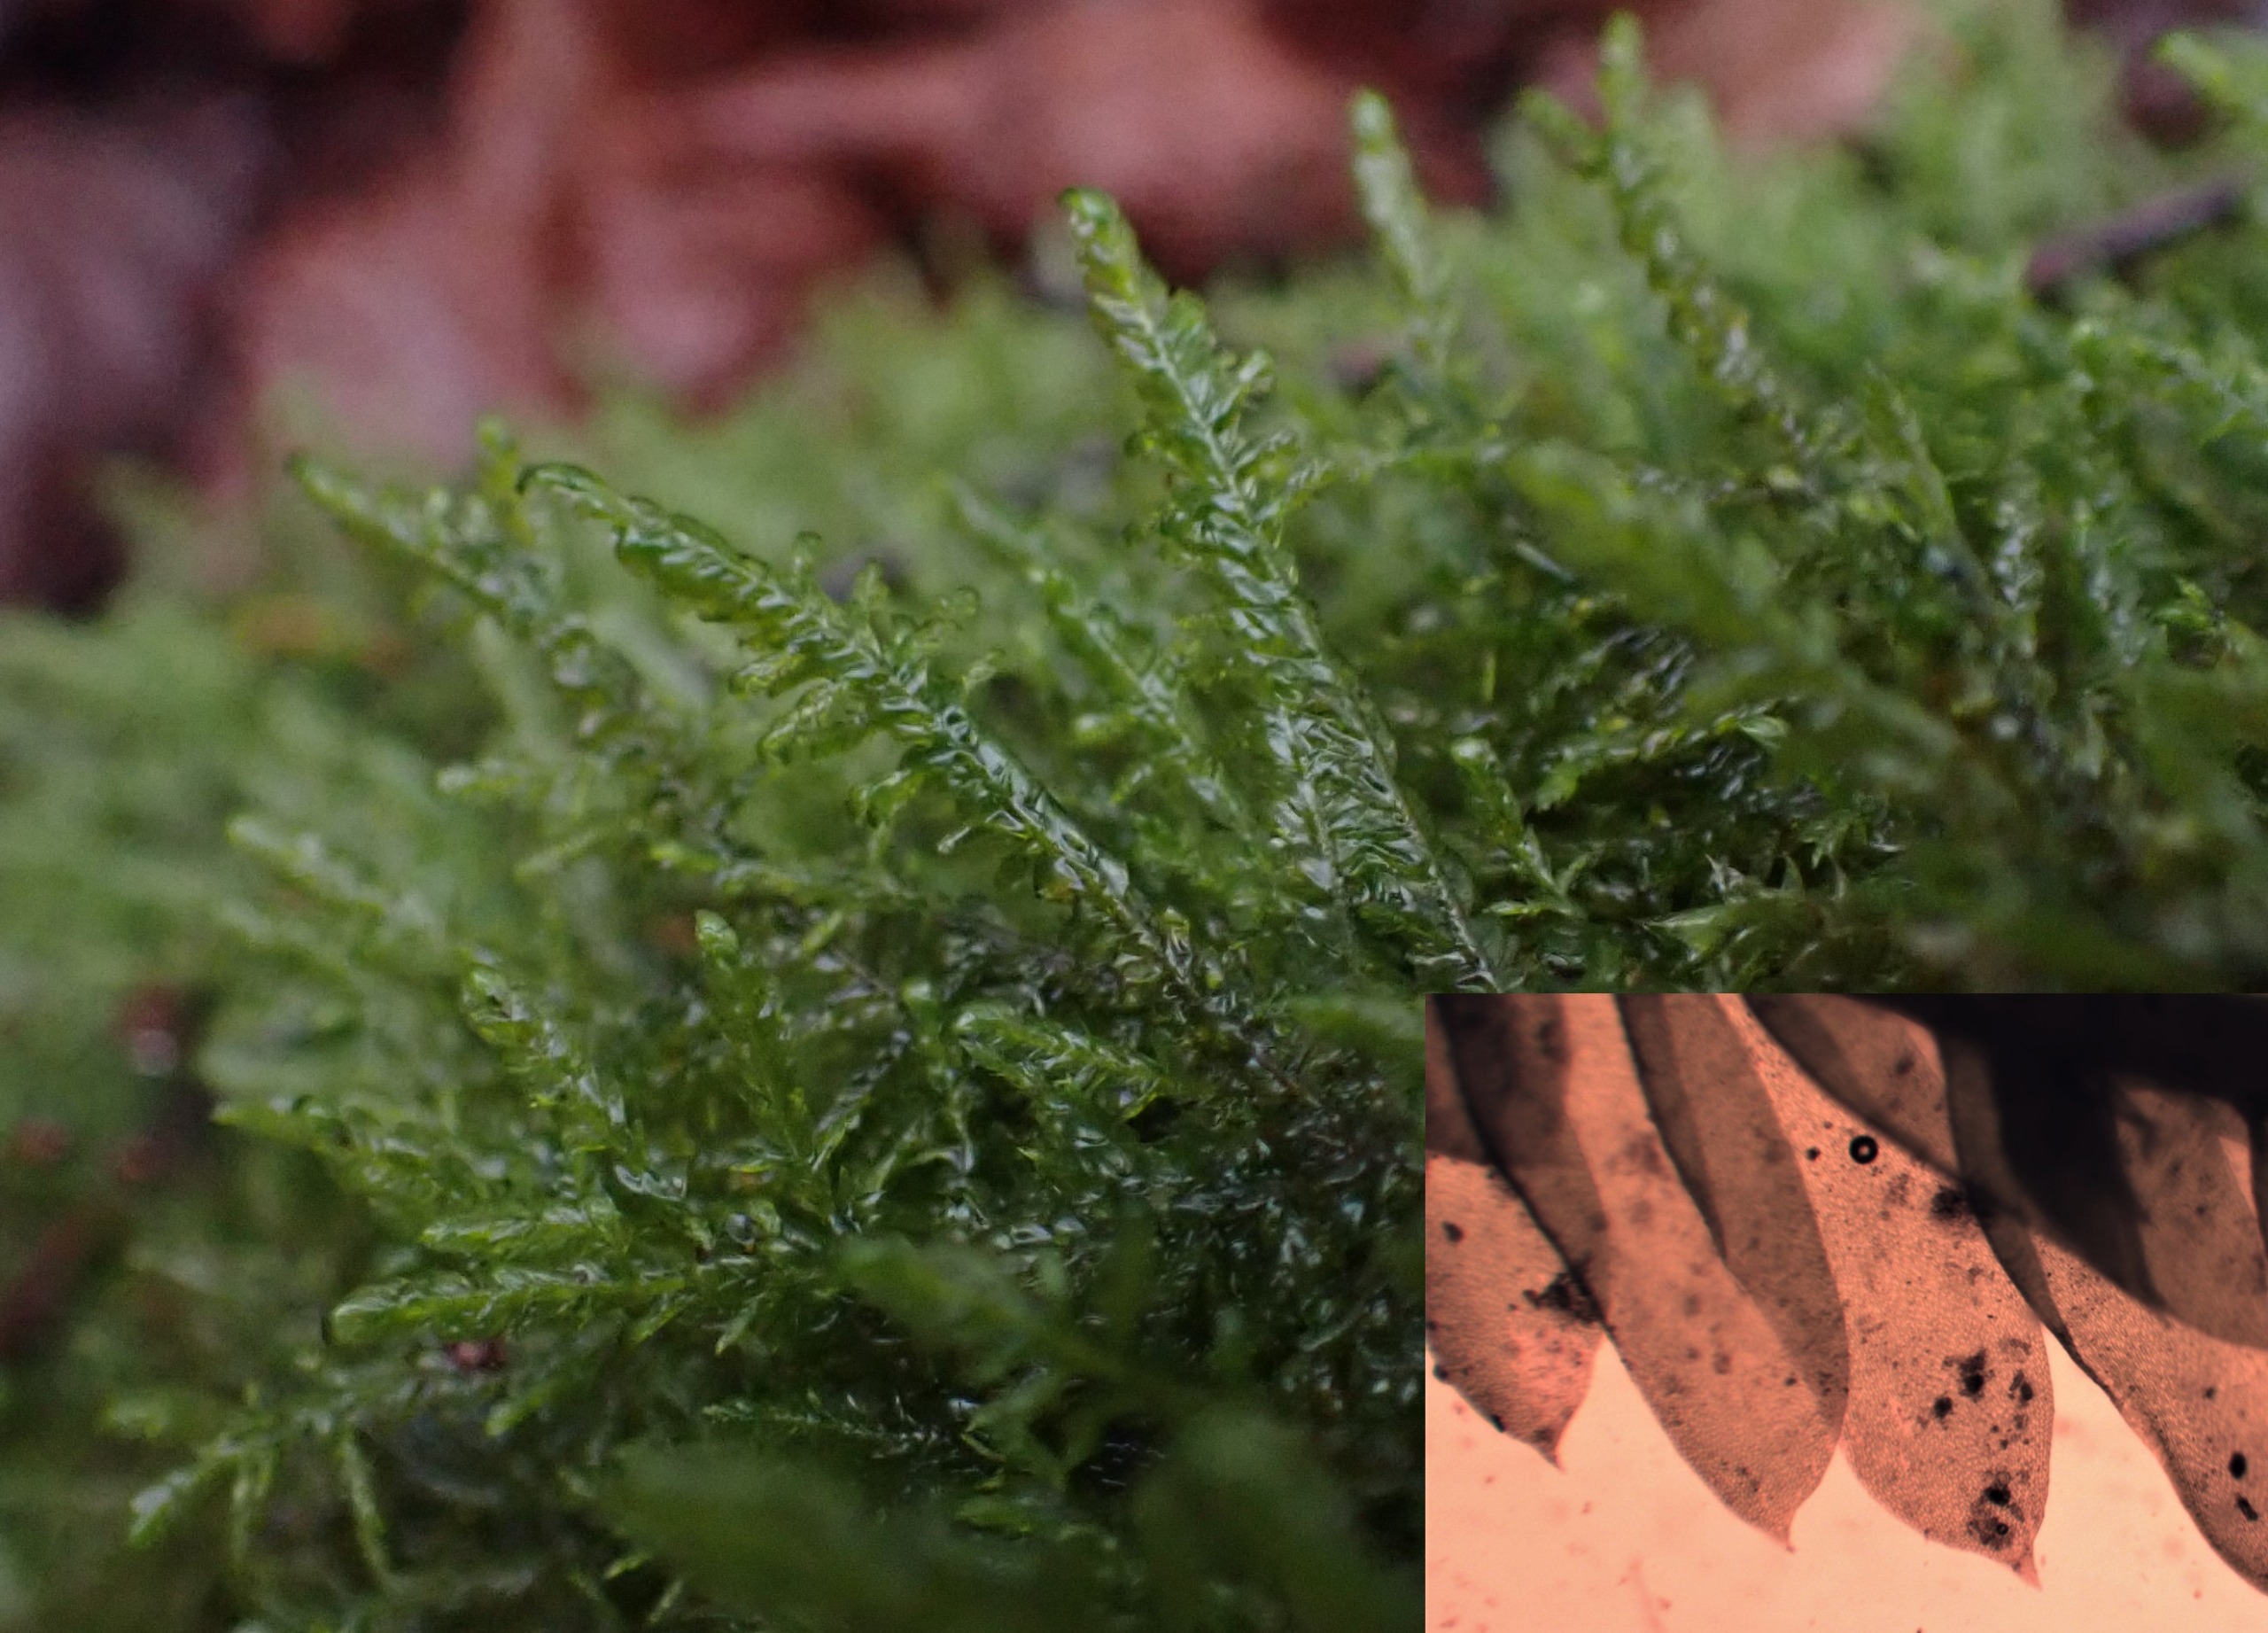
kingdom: Plantae
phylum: Bryophyta
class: Bryopsida
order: Hypnales
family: Neckeraceae
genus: Alleniella
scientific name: Alleniella complanata
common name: Almindelig fladmos
